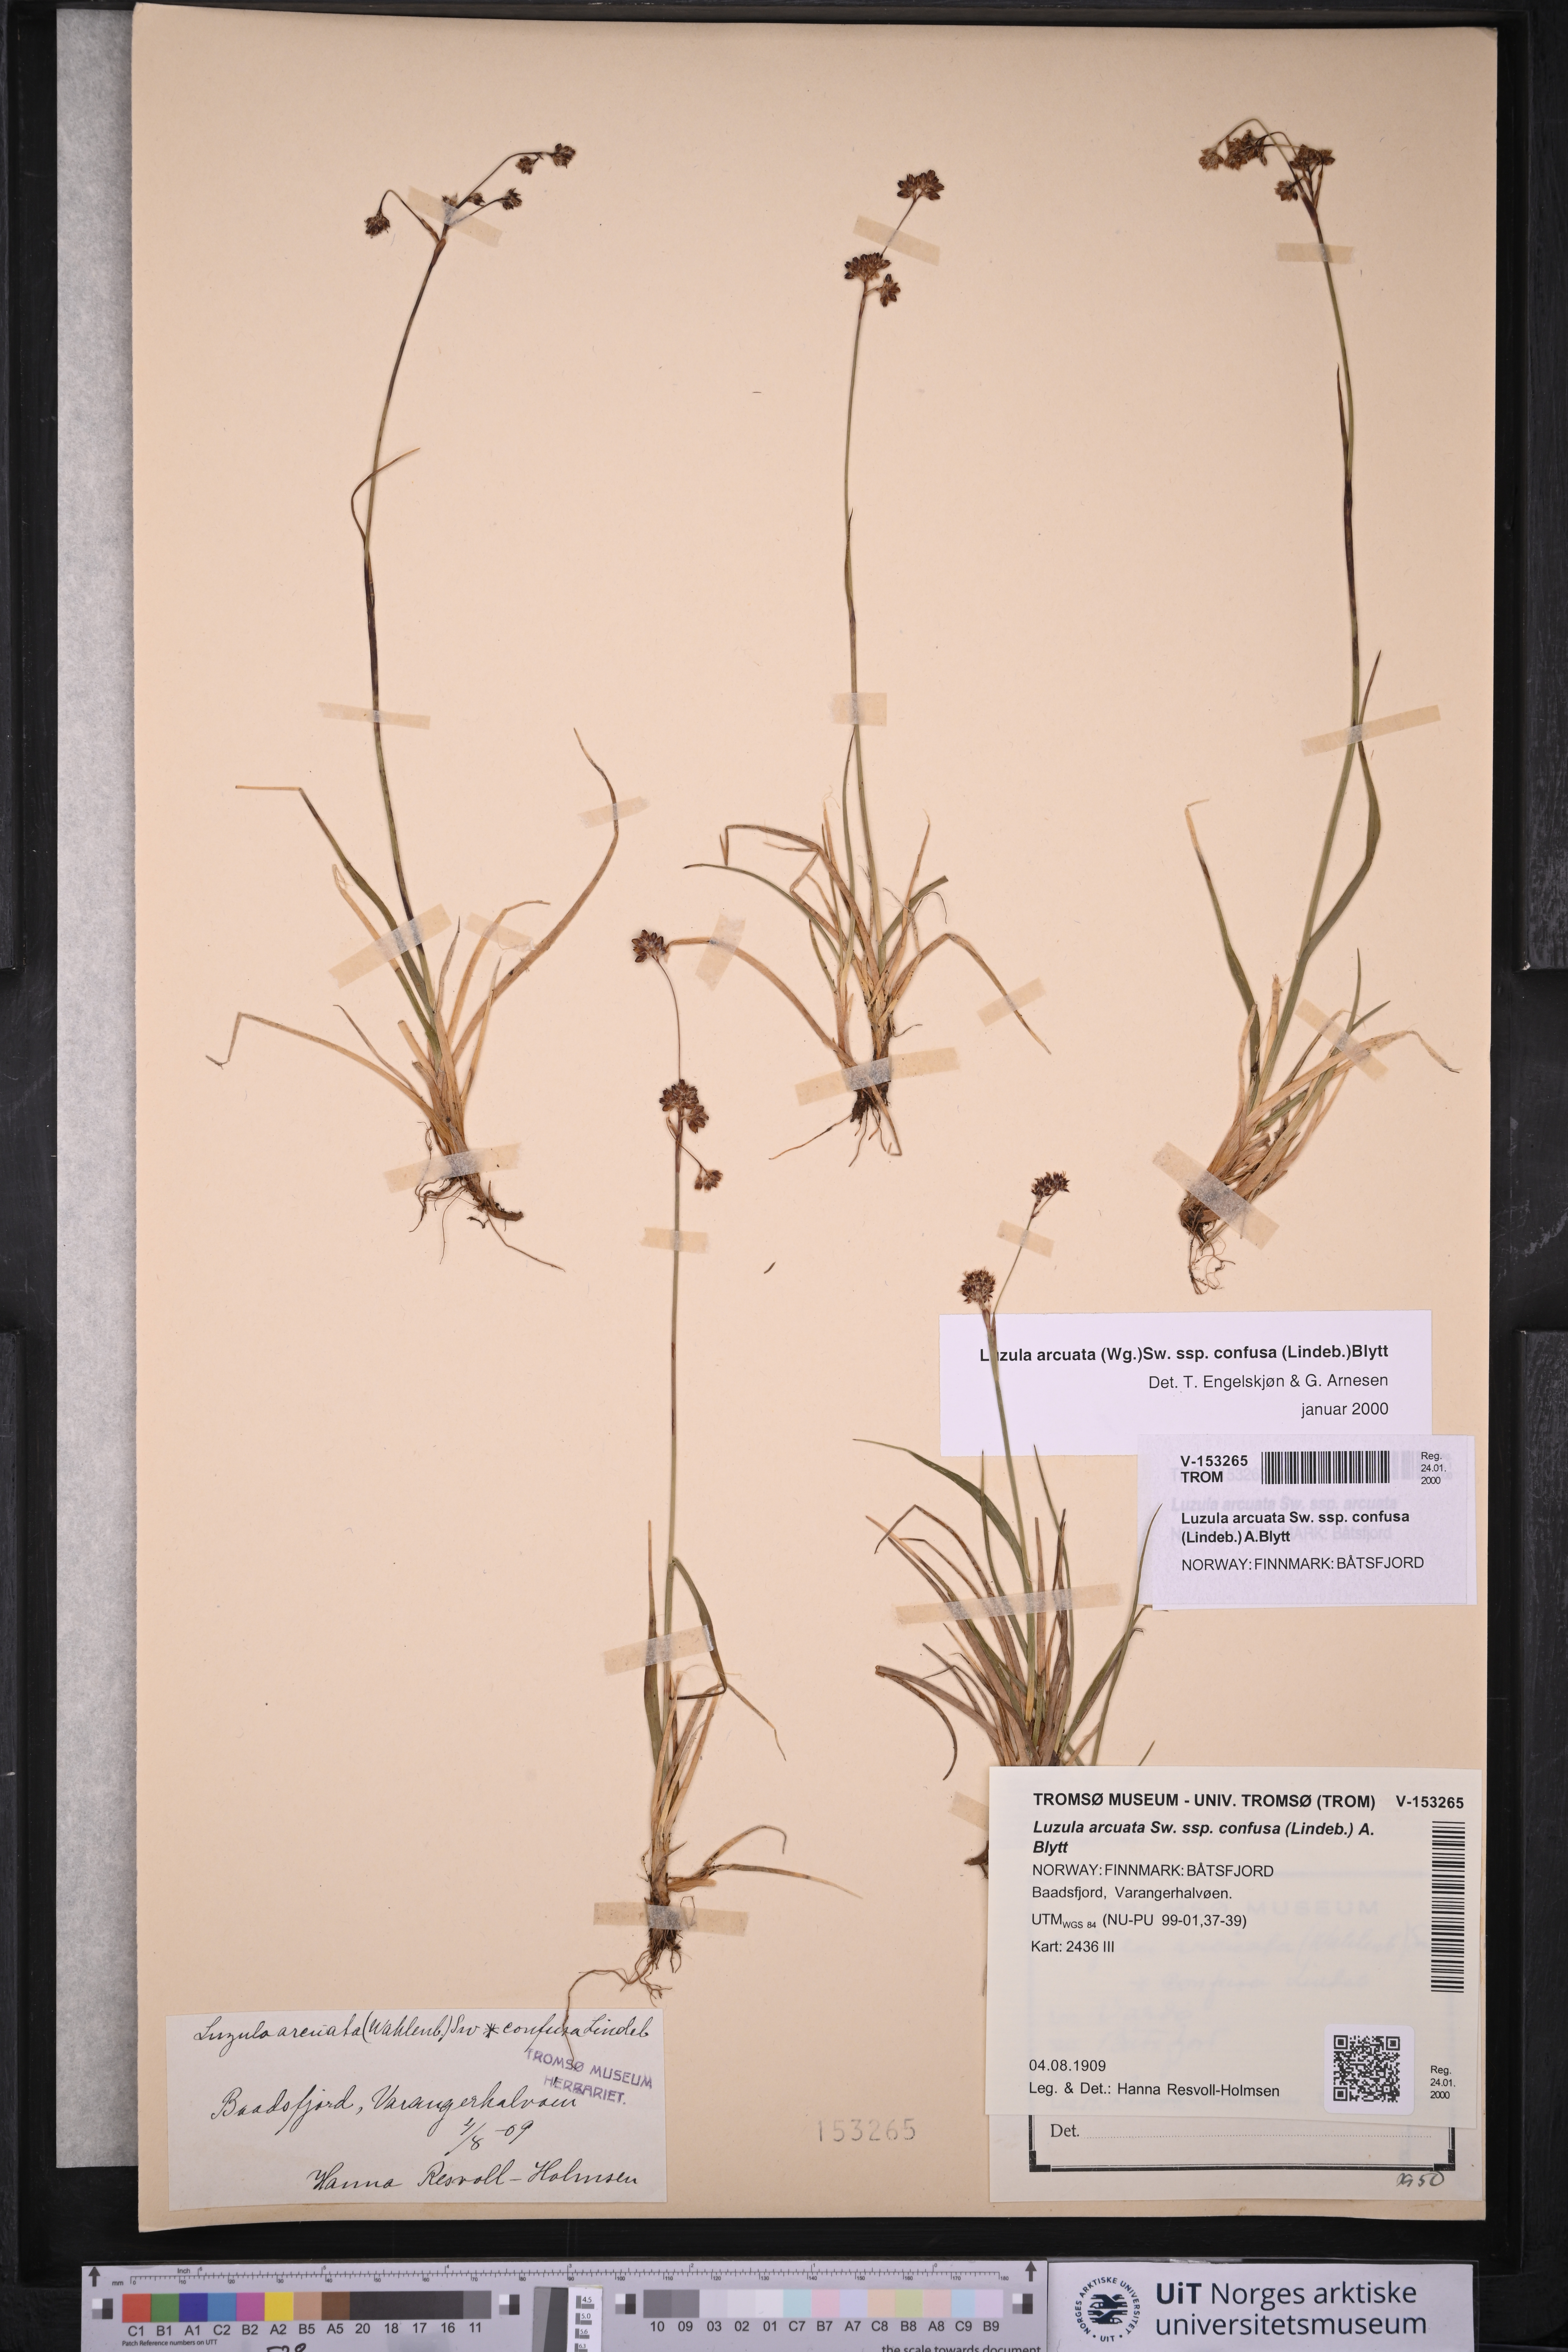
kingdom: Plantae
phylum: Tracheophyta
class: Liliopsida
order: Poales
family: Juncaceae
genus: Luzula
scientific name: Luzula confusa
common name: Northern wood rush
